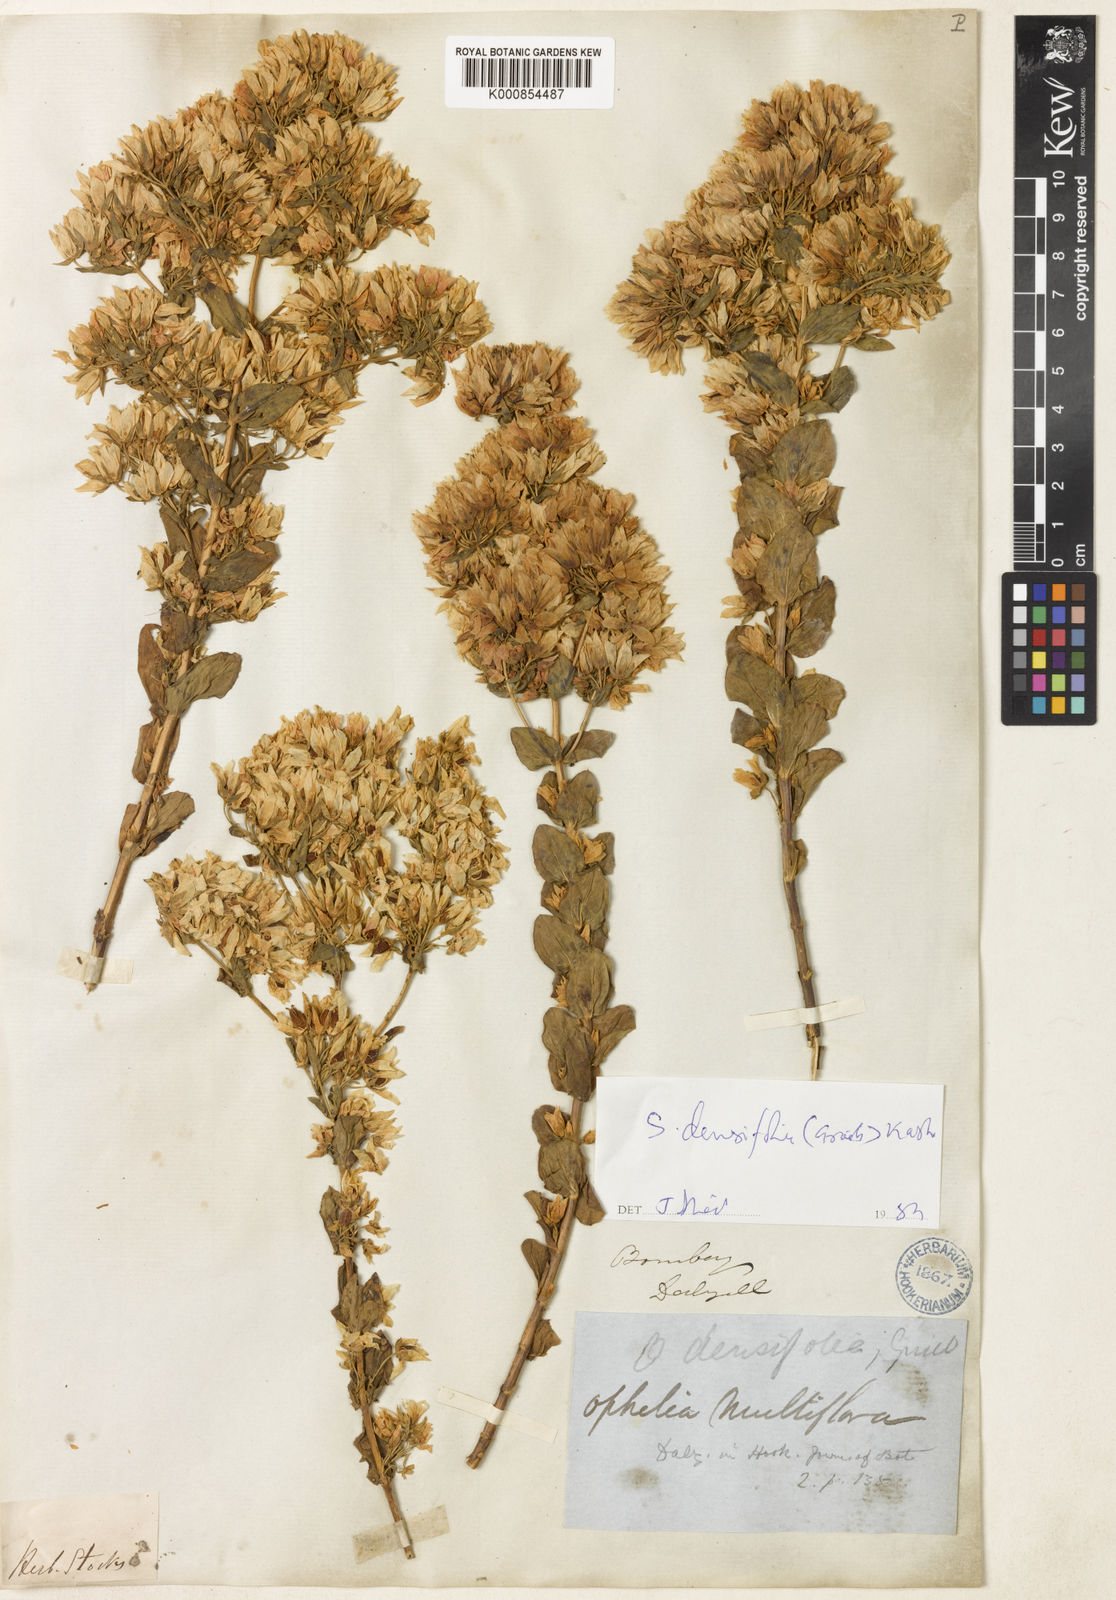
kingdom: Plantae
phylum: Tracheophyta
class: Magnoliopsida
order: Gentianales
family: Gentianaceae
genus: Swertia
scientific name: Swertia densifolia
